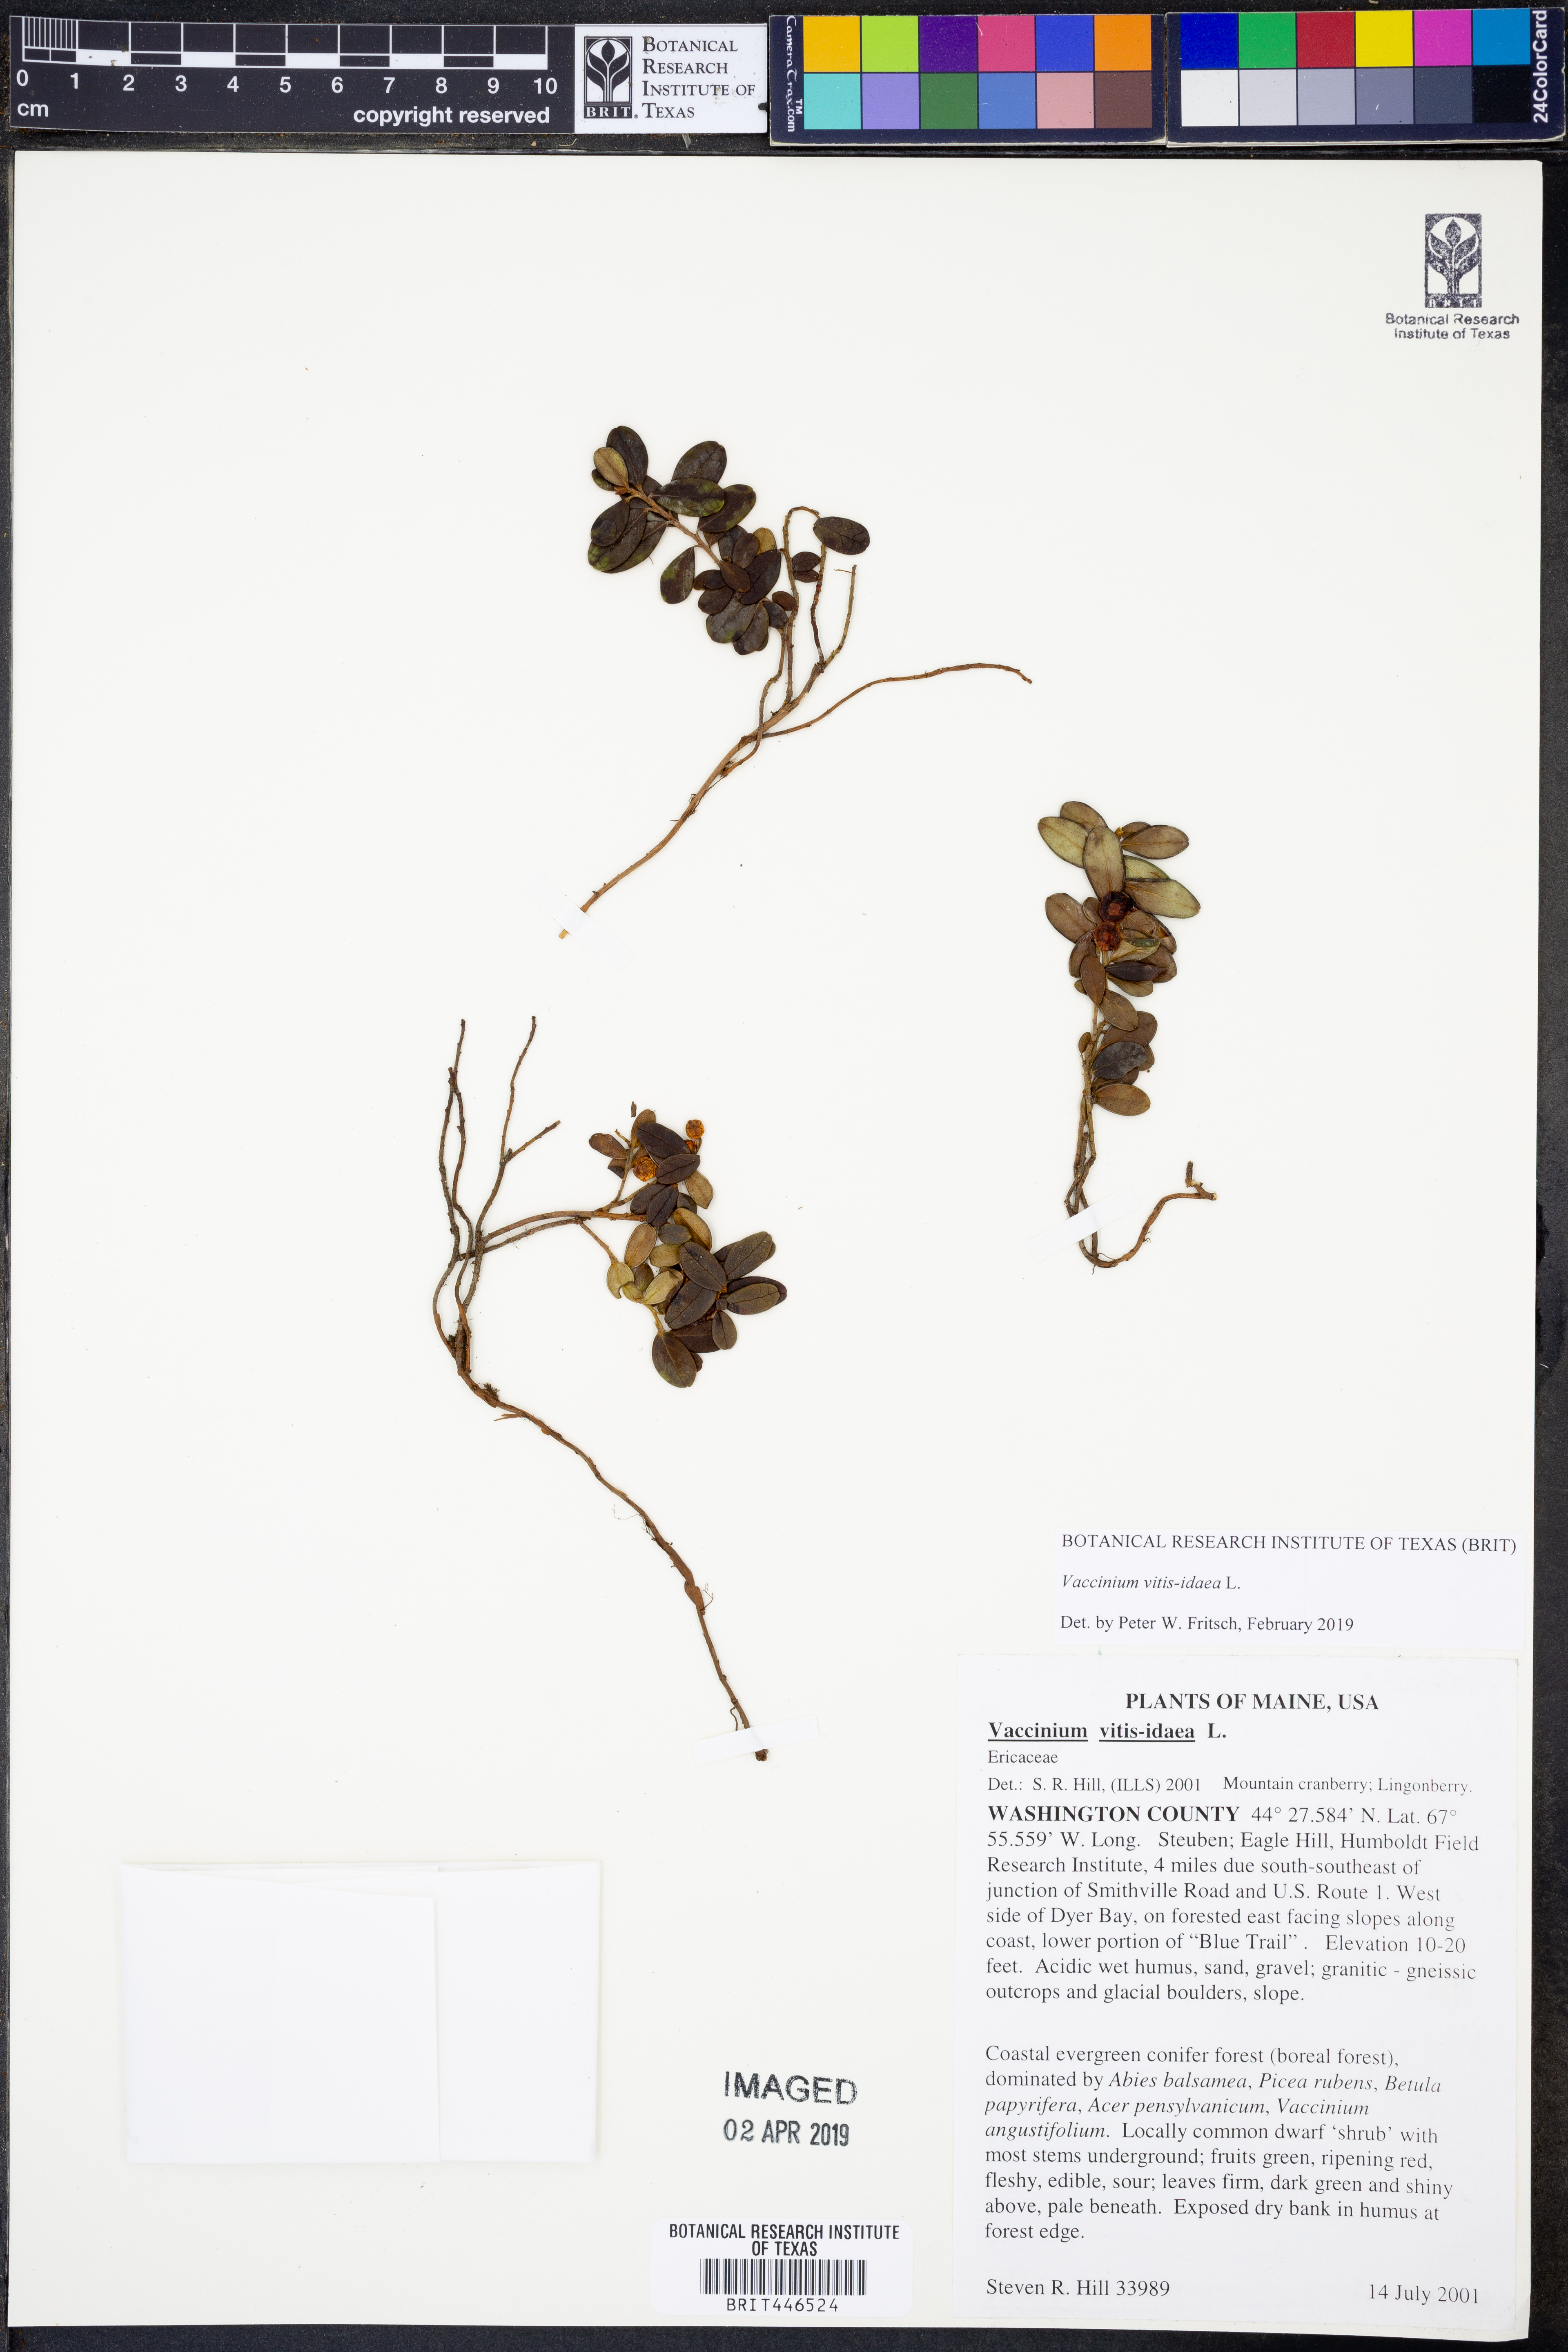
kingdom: Plantae
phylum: Tracheophyta
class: Magnoliopsida
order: Ericales
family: Ericaceae
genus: Vaccinium
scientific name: Vaccinium vitis-idaea
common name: Cowberry
